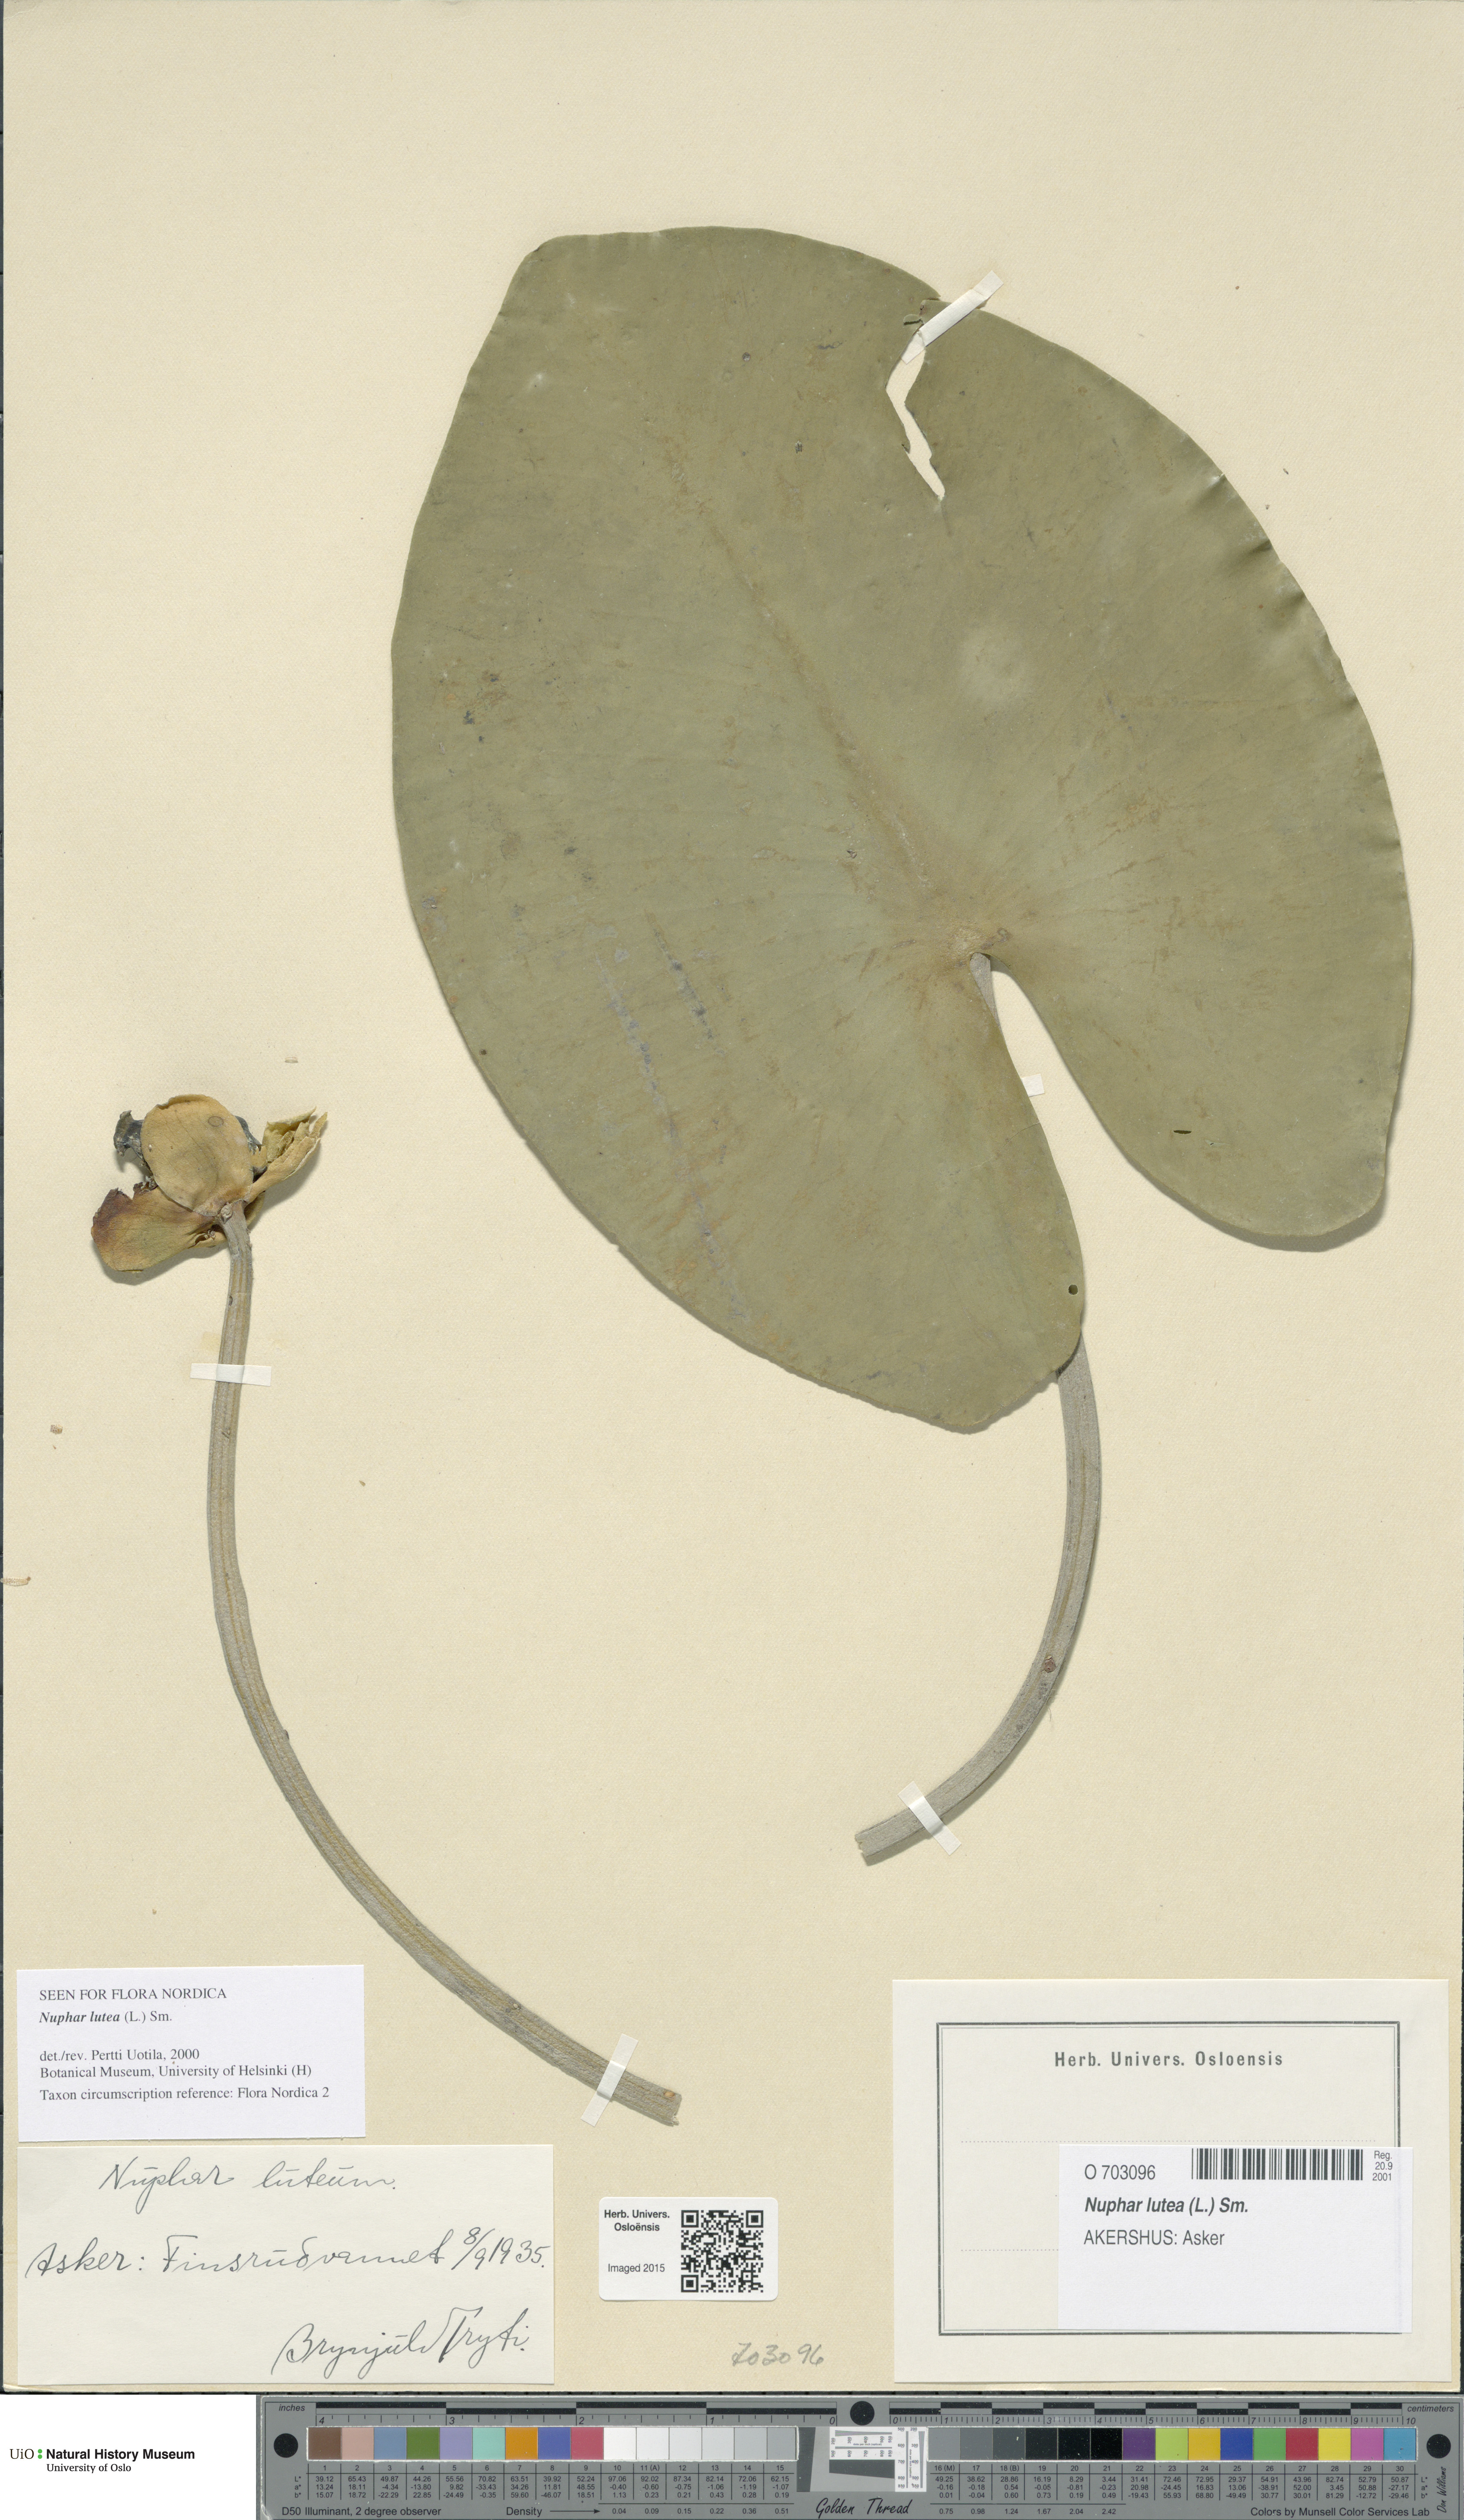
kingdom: Plantae
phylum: Tracheophyta
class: Magnoliopsida
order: Nymphaeales
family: Nymphaeaceae
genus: Nuphar
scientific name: Nuphar lutea
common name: Yellow water-lily
